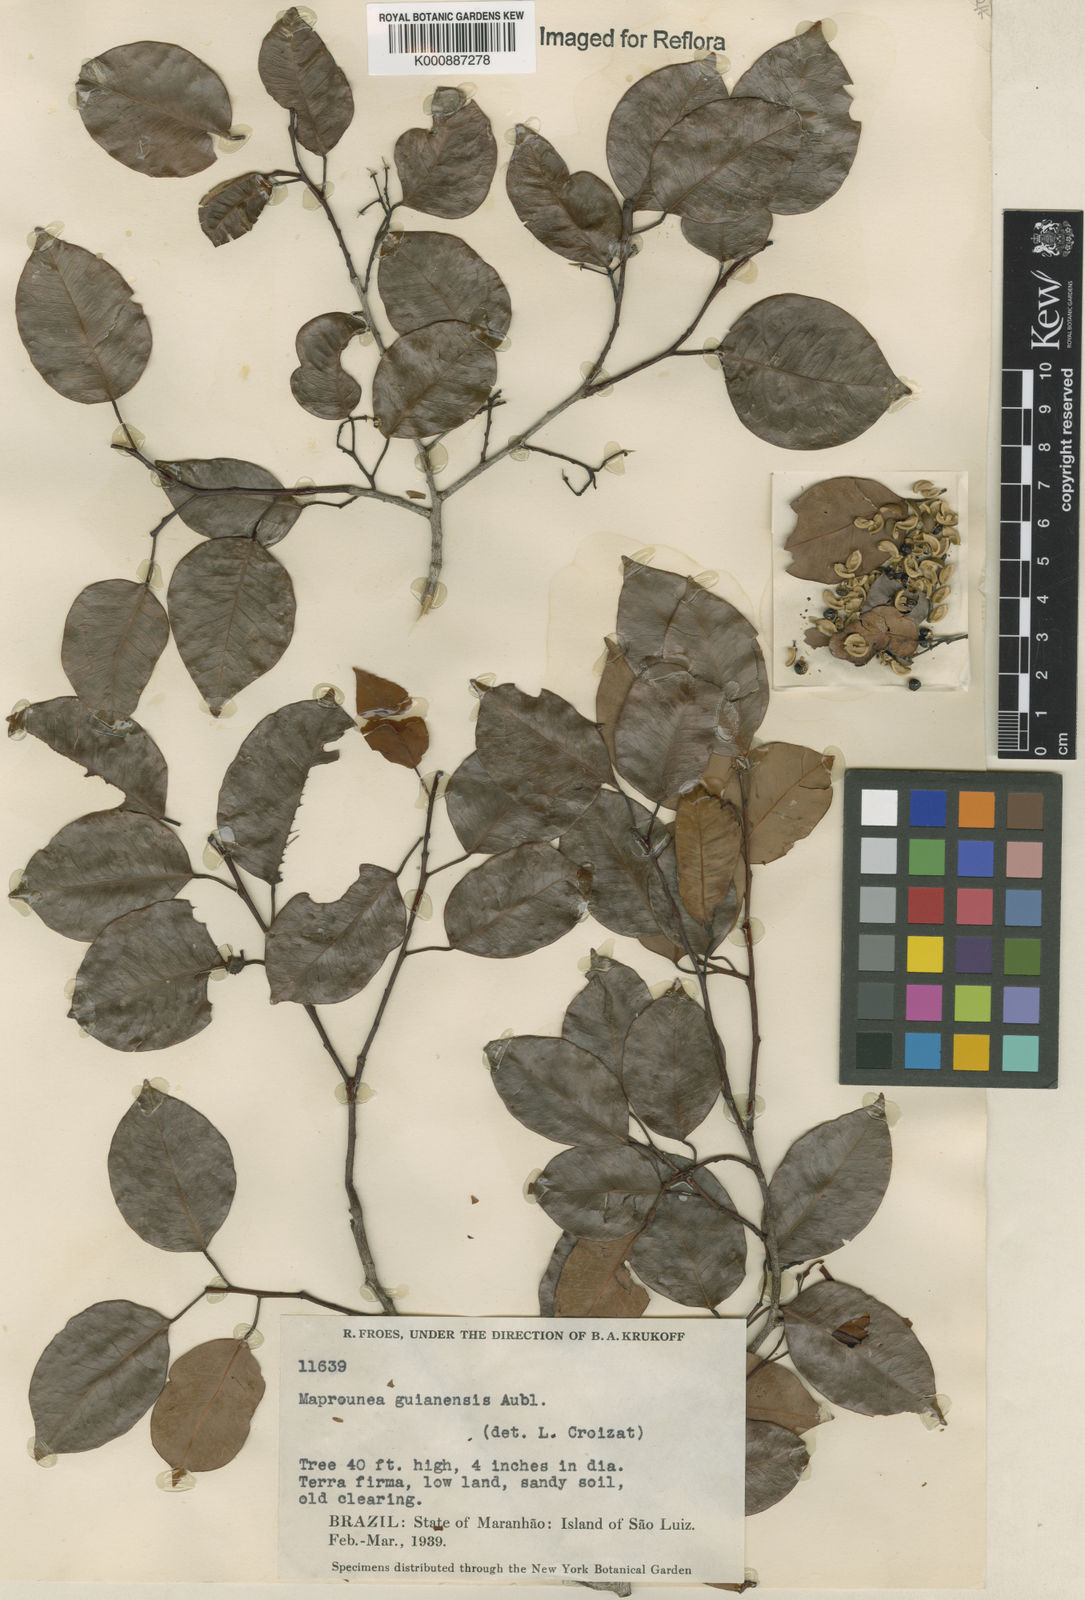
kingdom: Plantae
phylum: Tracheophyta
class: Magnoliopsida
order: Malpighiales
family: Euphorbiaceae
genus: Maprounea
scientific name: Maprounea guianensis
